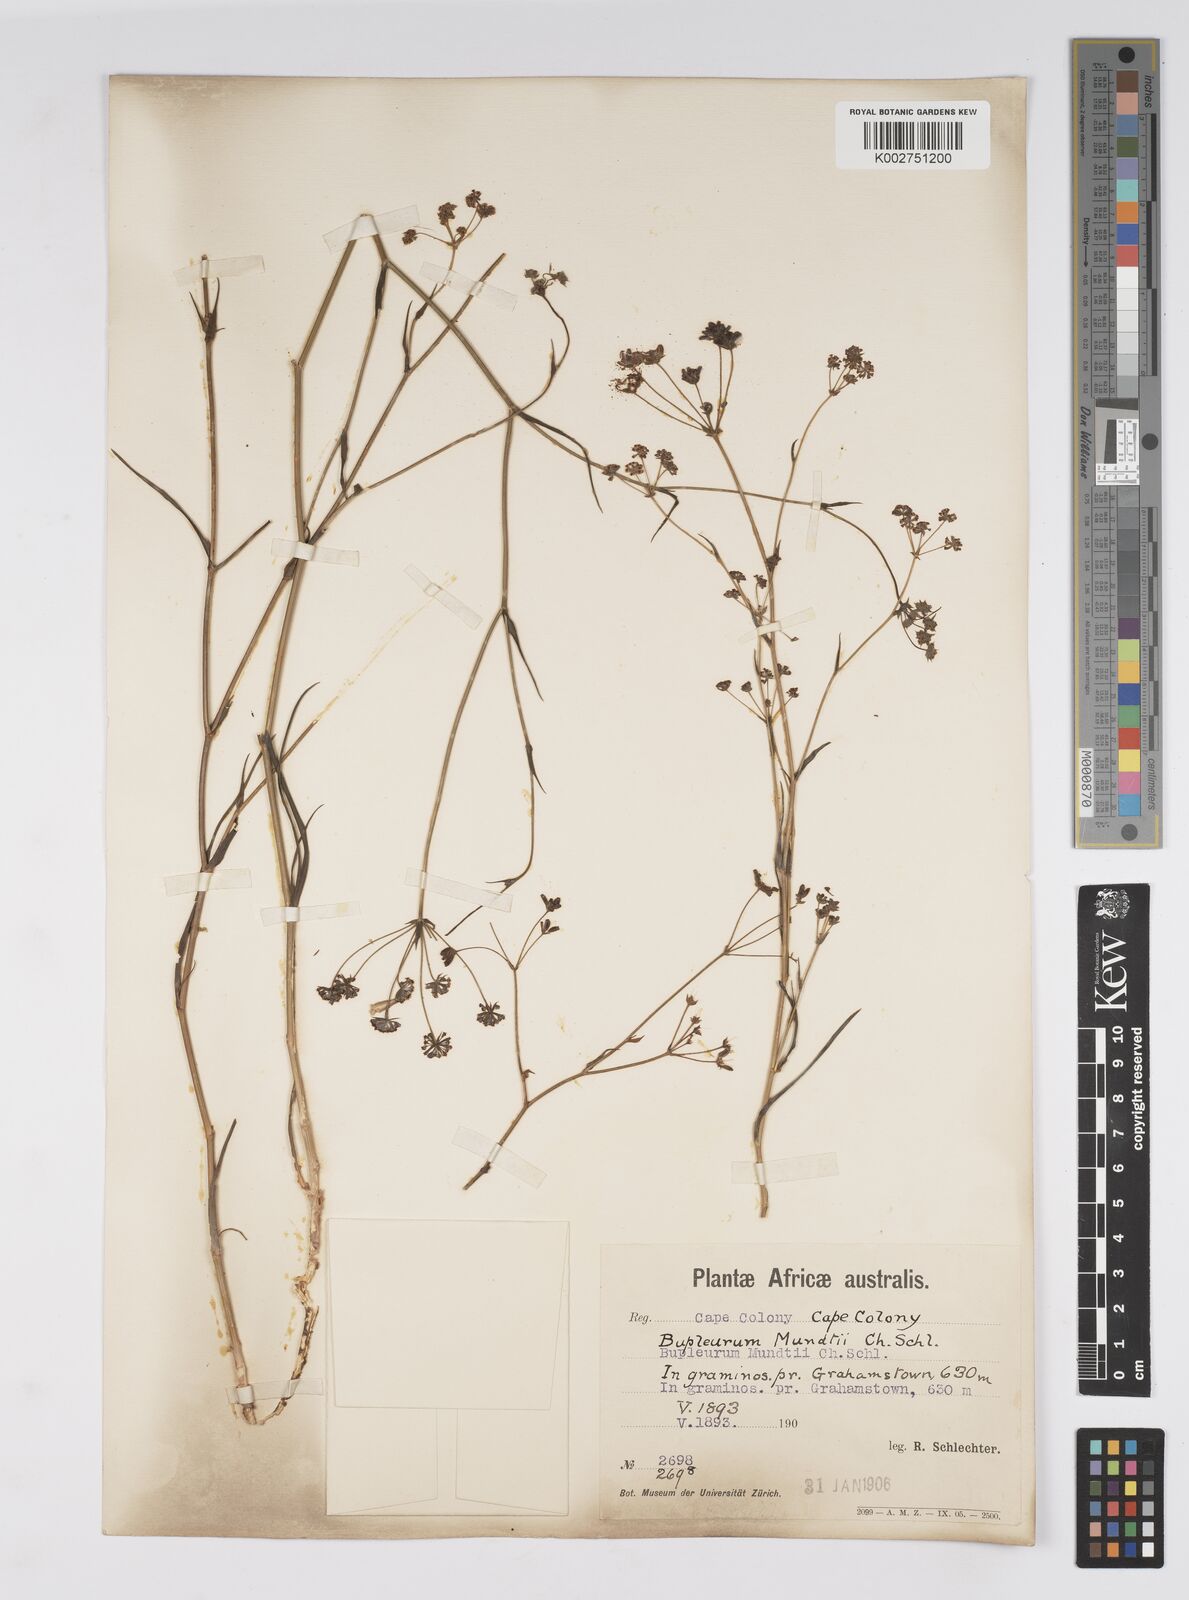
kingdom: Plantae
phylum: Tracheophyta
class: Magnoliopsida
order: Apiales
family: Apiaceae
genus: Bupleurum
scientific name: Bupleurum mundii
